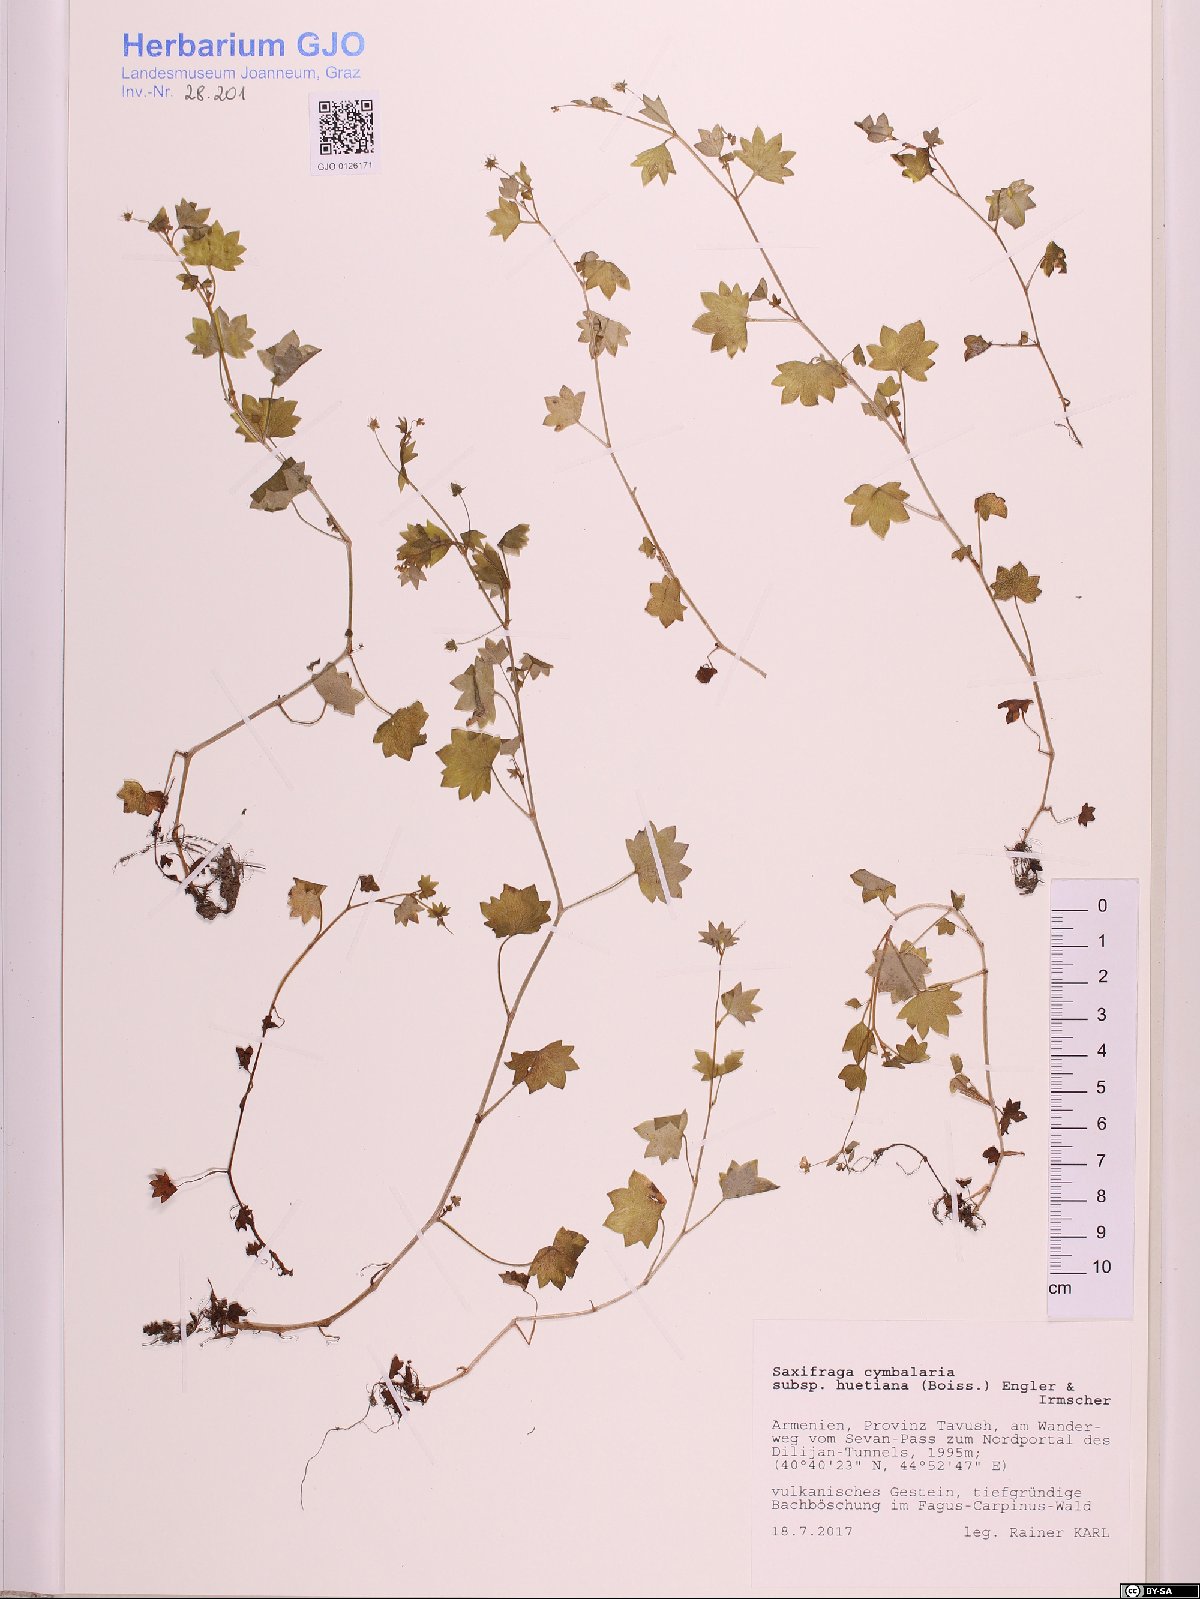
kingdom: Plantae
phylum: Tracheophyta
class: Magnoliopsida
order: Saxifragales
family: Saxifragaceae
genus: Saxifraga
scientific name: Saxifraga cymbalaria
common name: Celandine saxifrage
